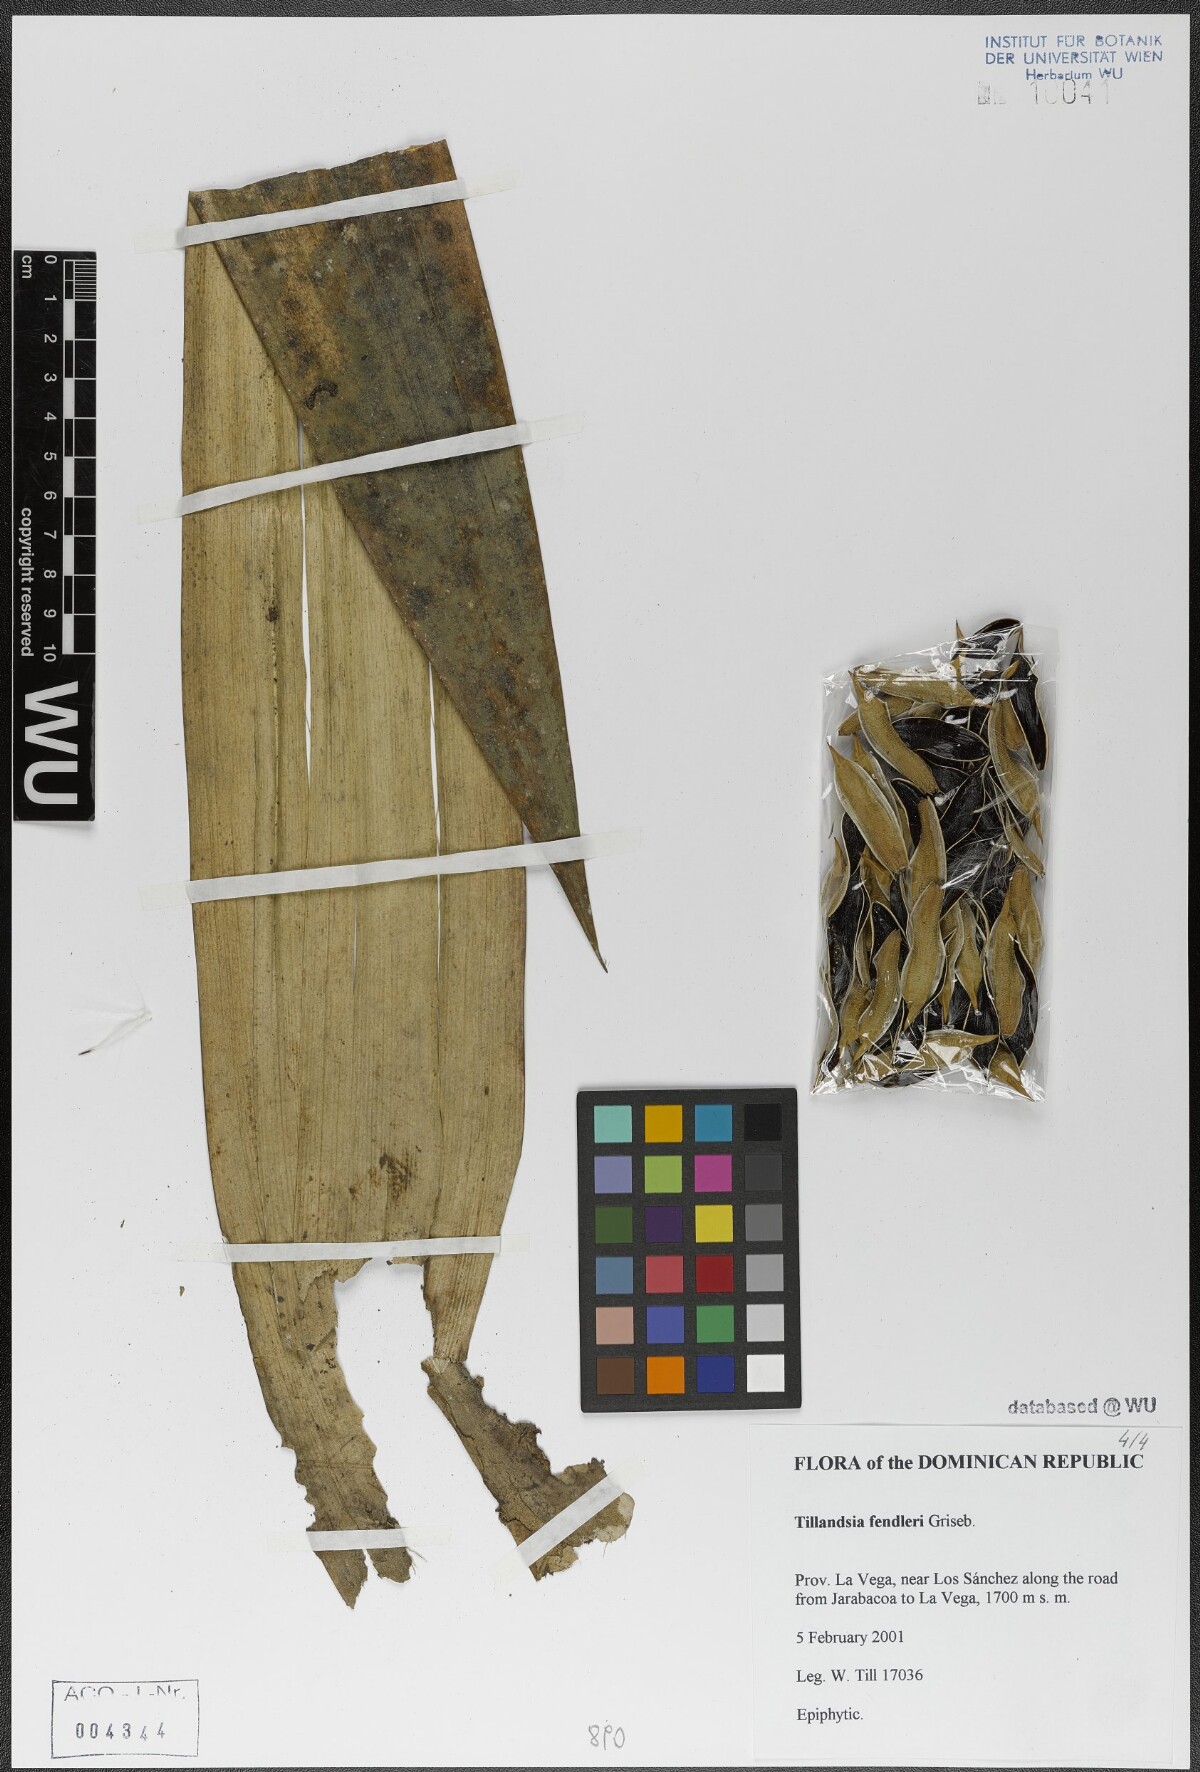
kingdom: Plantae
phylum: Tracheophyta
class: Liliopsida
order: Poales
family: Bromeliaceae
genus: Tillandsia
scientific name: Tillandsia fendleri
